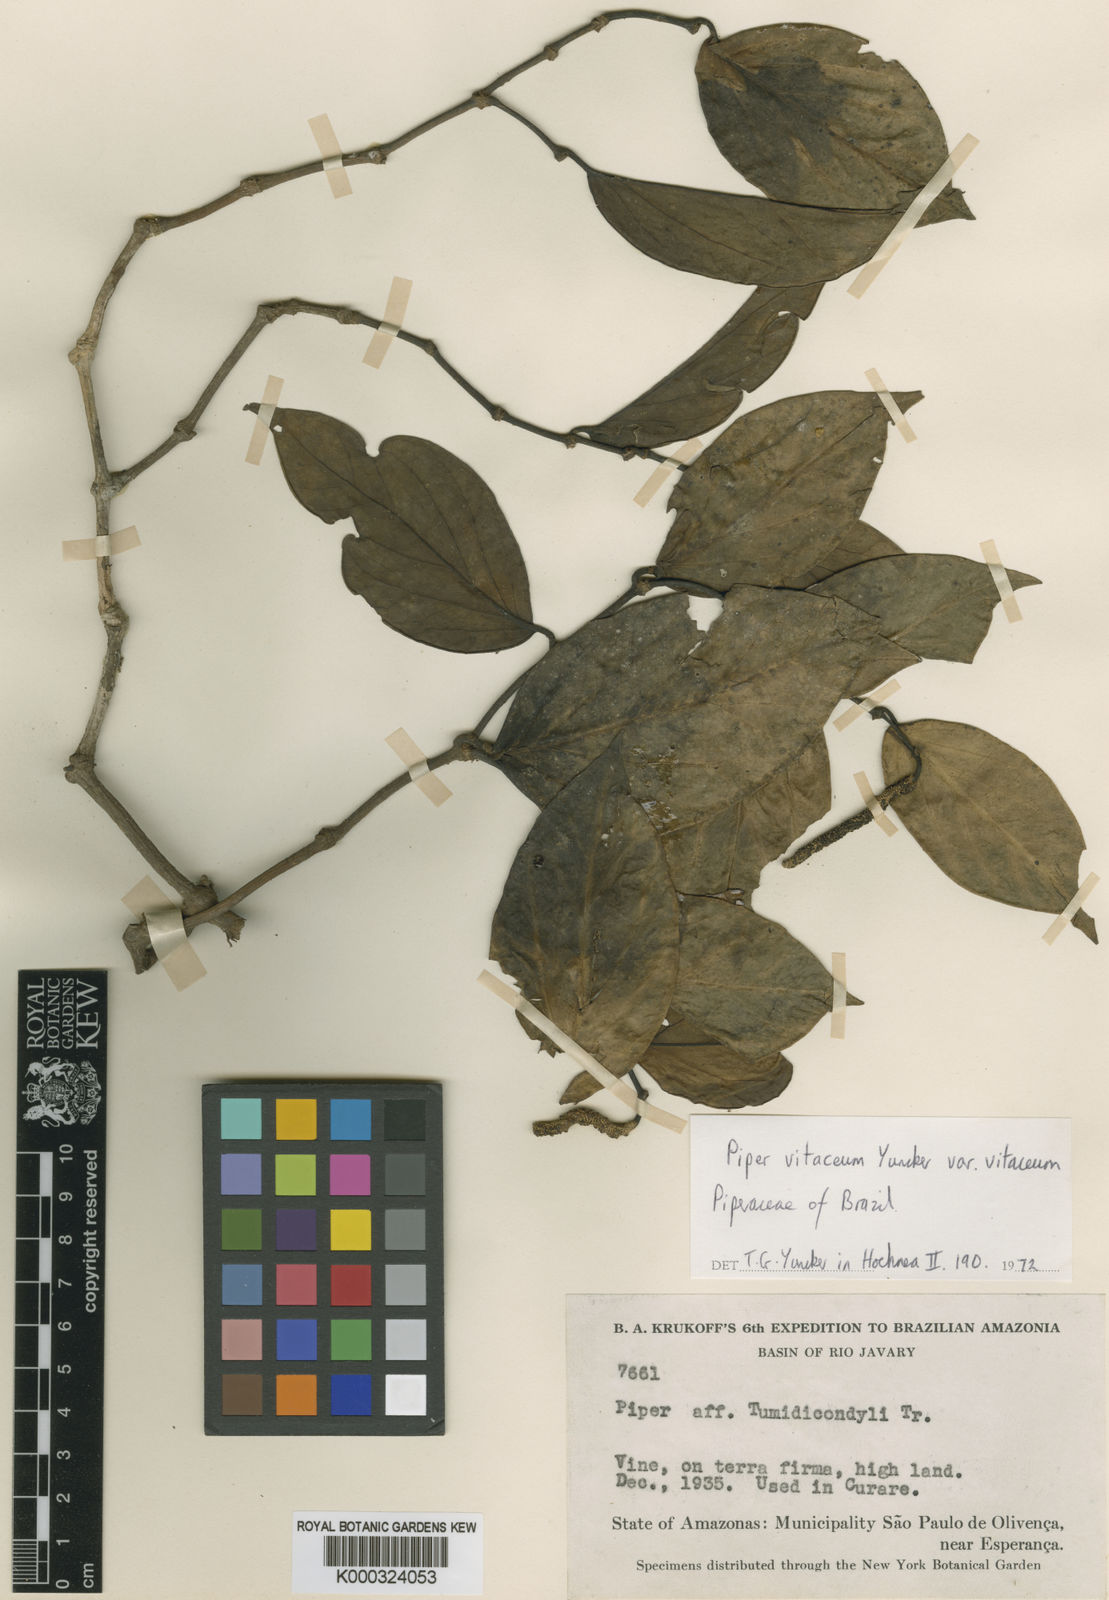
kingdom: Plantae
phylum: Tracheophyta
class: Magnoliopsida
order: Piperales
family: Piperaceae
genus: Piper
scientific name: Piper vitaceum
